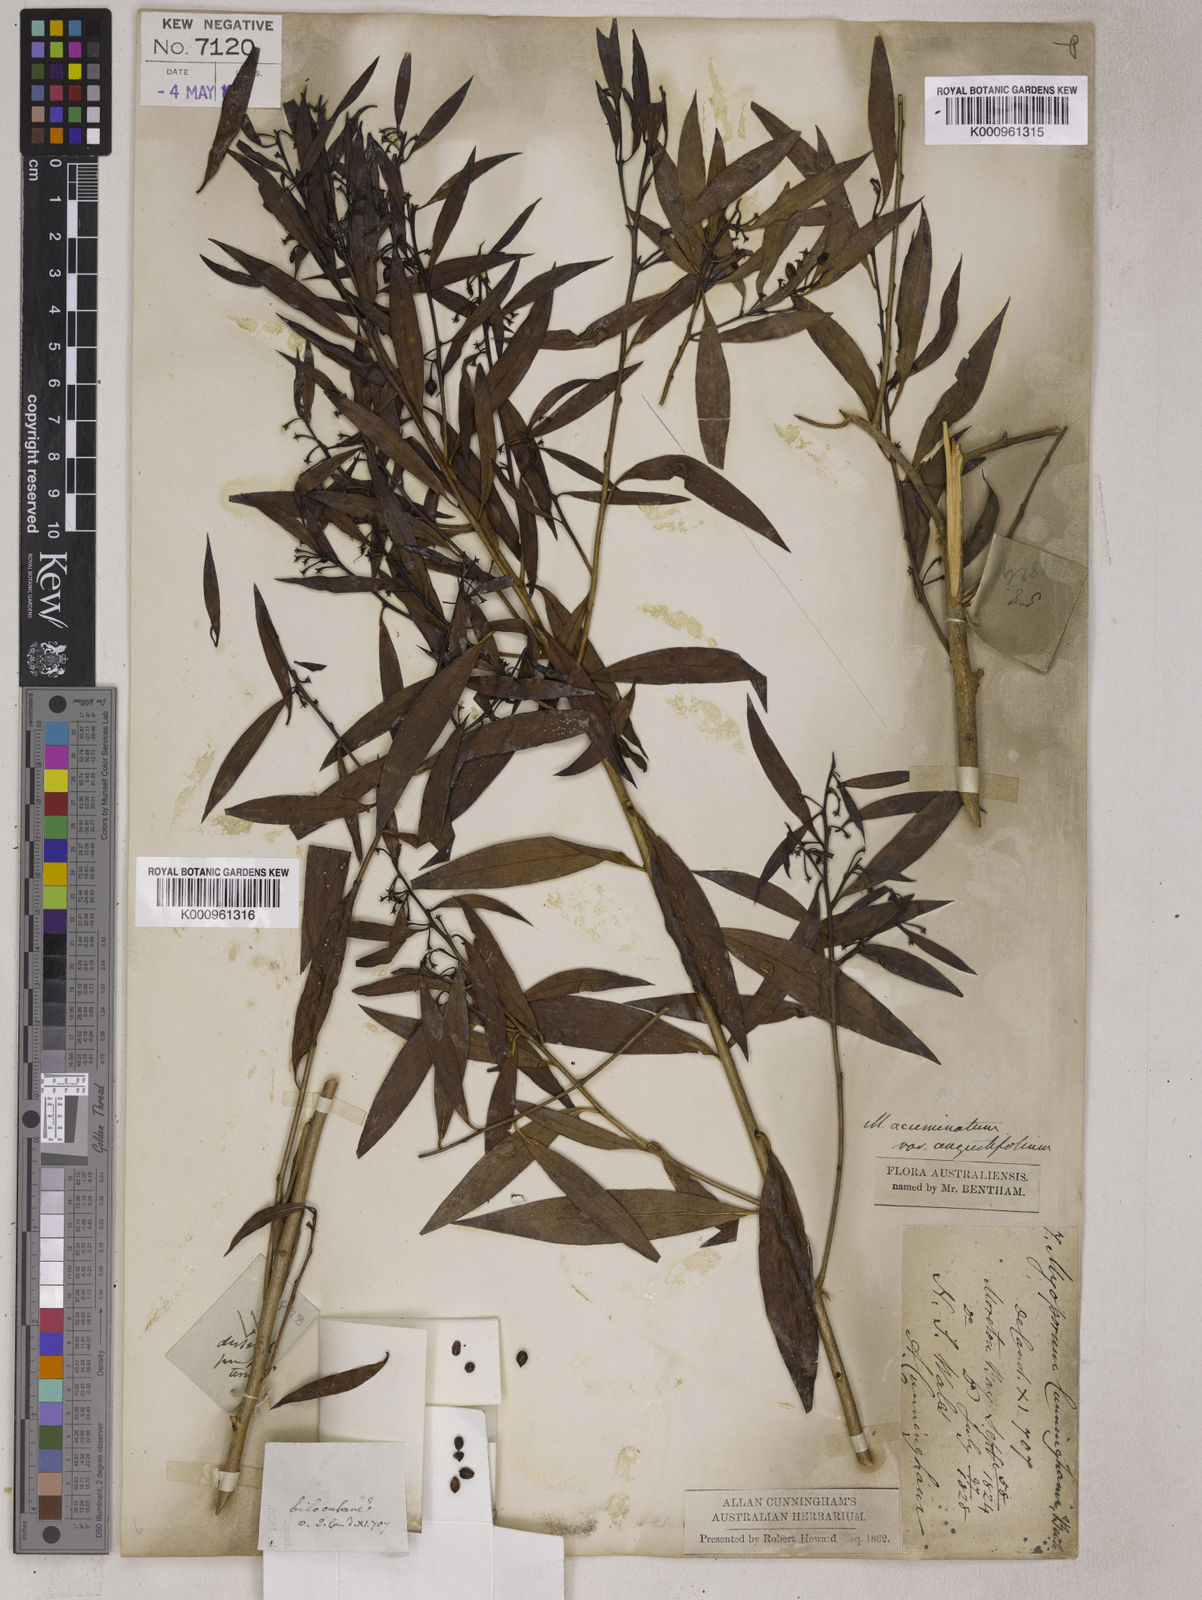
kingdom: Plantae
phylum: Tracheophyta
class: Magnoliopsida
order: Lamiales
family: Scrophulariaceae
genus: Myoporum
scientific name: Myoporum montanum
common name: Waterbush
